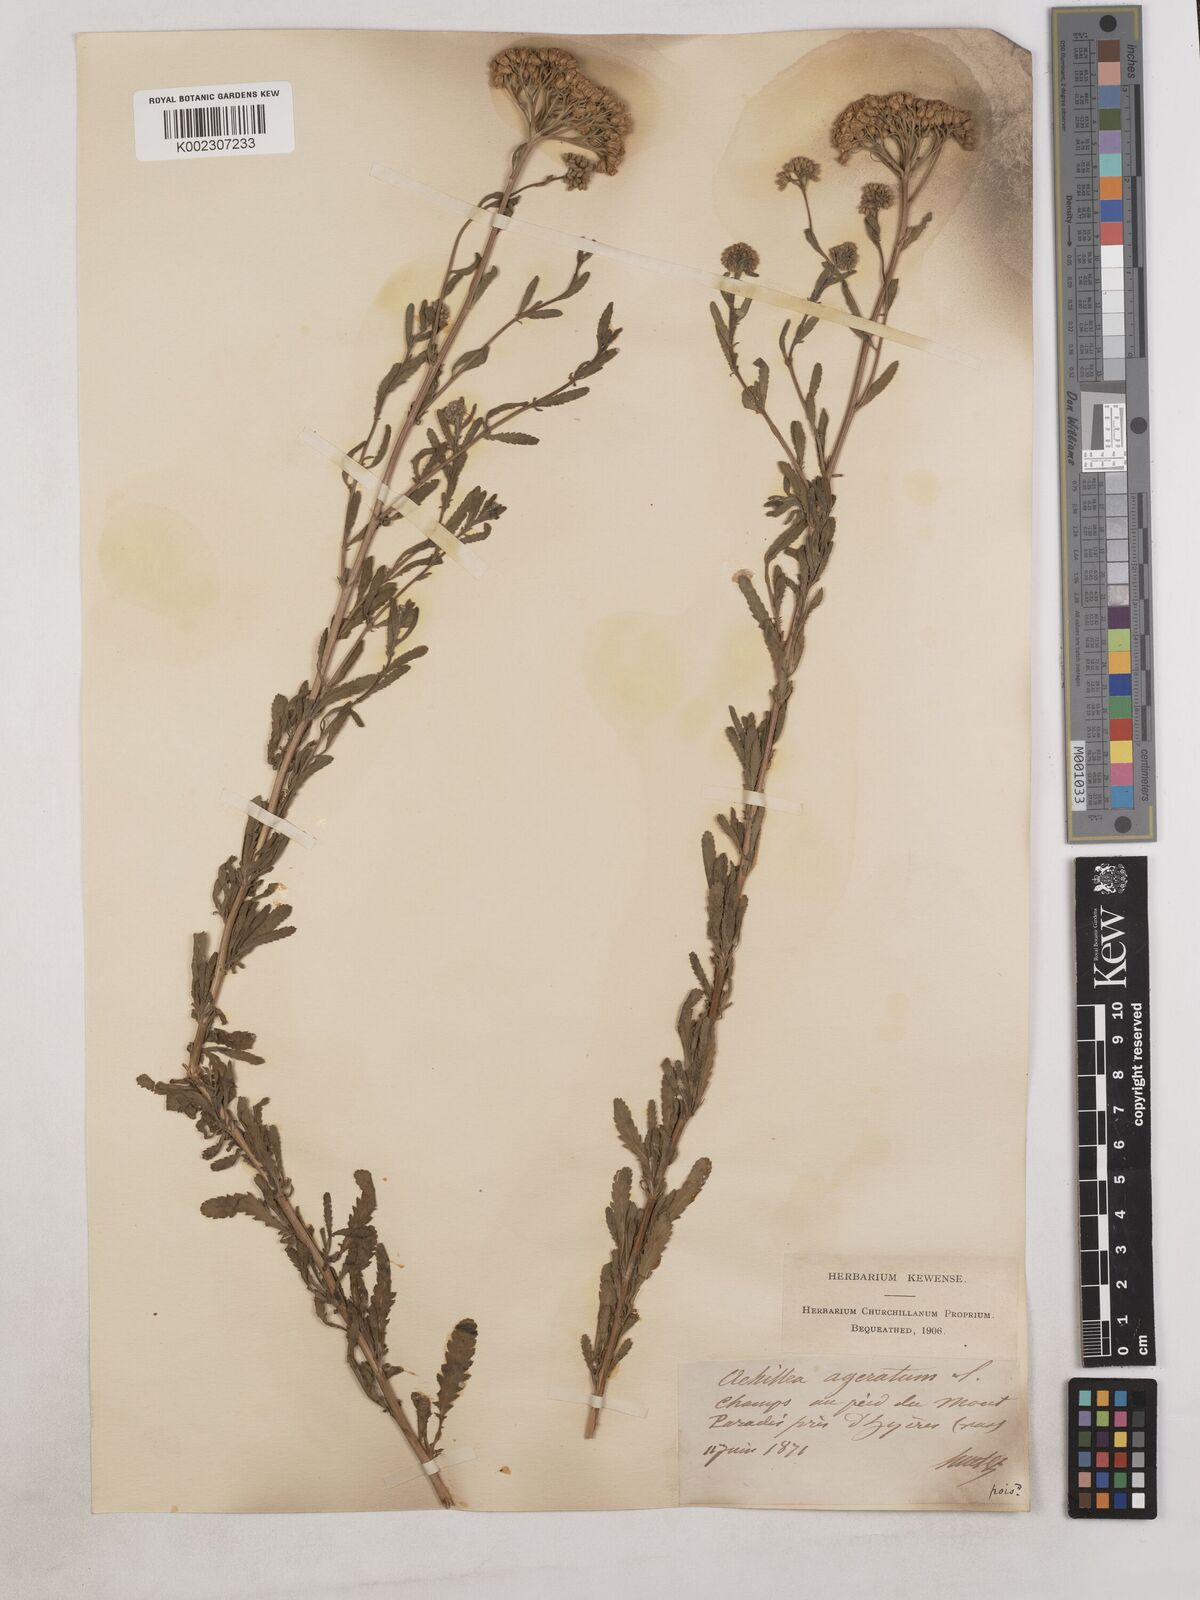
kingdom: Plantae
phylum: Tracheophyta
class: Magnoliopsida
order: Asterales
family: Asteraceae
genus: Achillea
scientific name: Achillea ageratum
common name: Sweet-nancy
